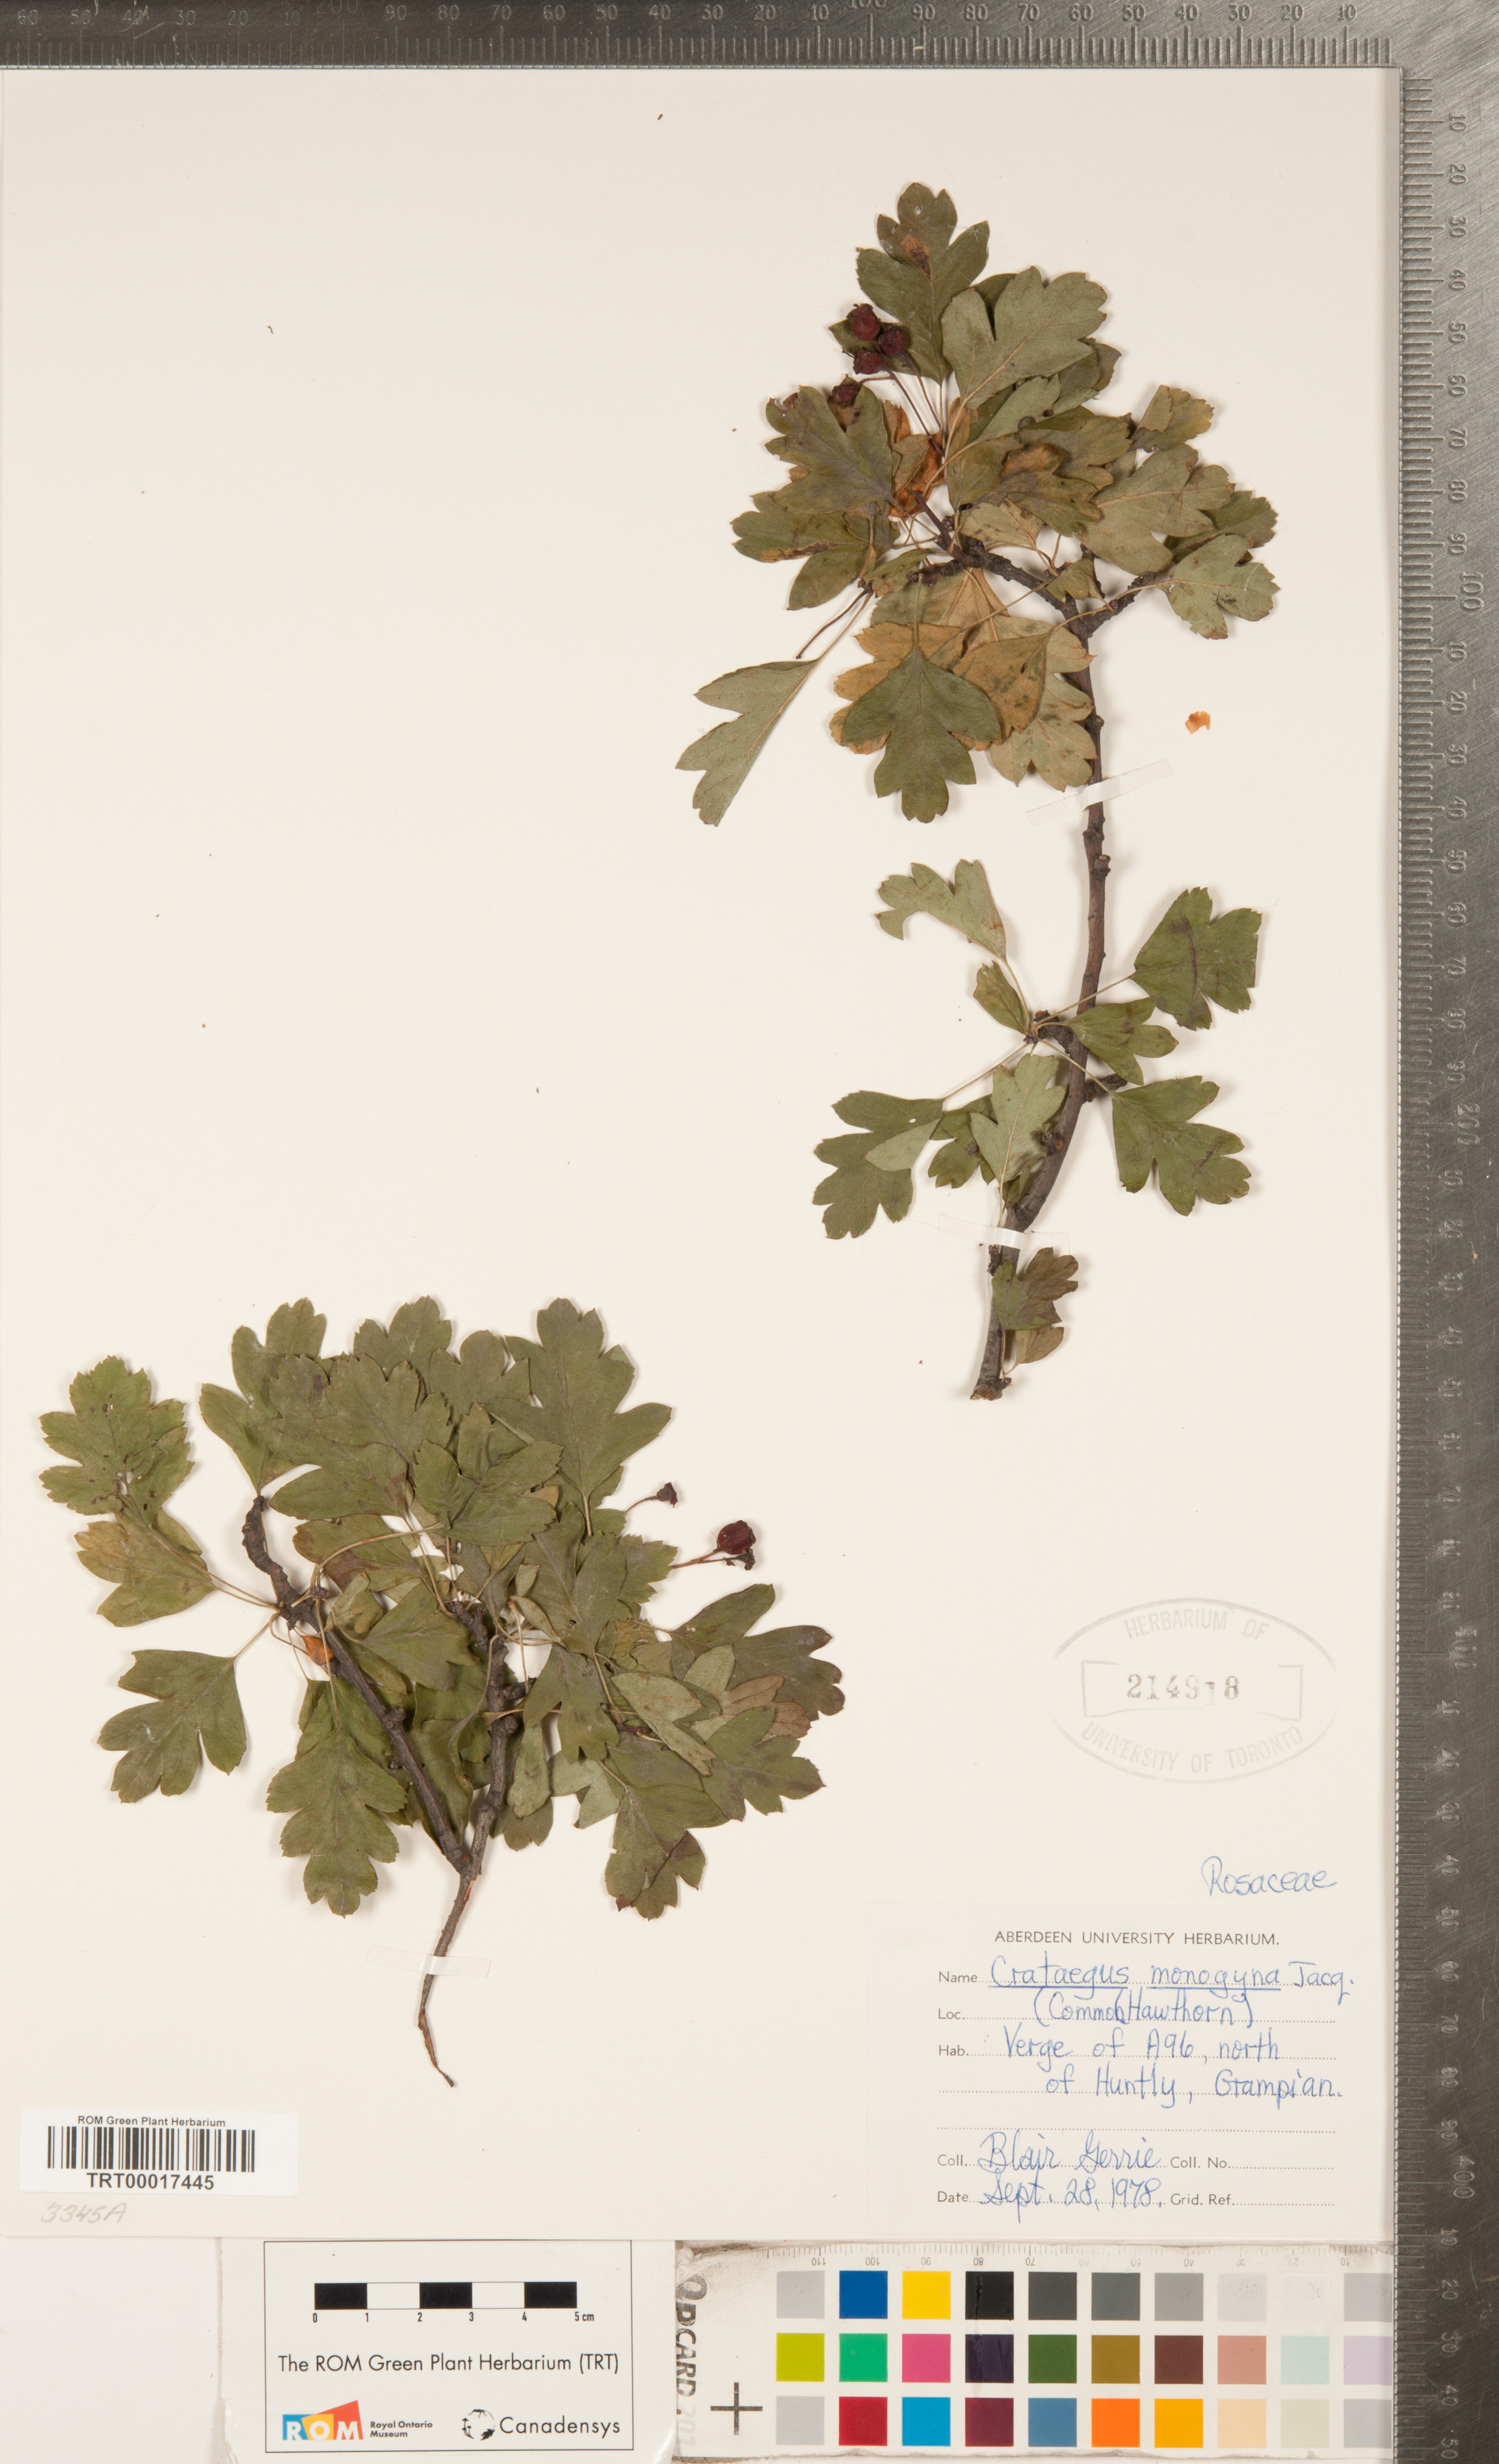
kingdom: Plantae
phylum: Tracheophyta
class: Magnoliopsida
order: Rosales
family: Rosaceae
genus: Crataegus
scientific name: Crataegus monogyna
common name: Hawthorn
